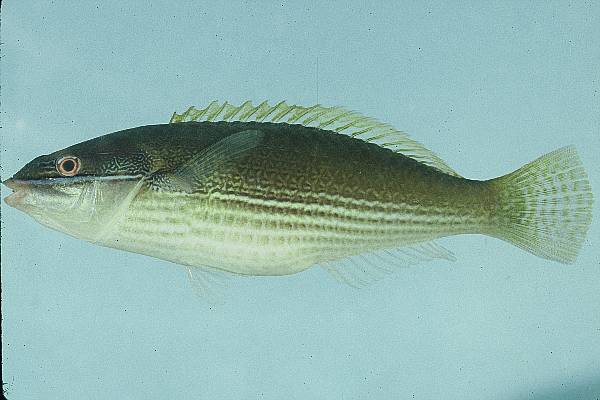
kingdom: Animalia
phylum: Chordata
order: Perciformes
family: Labridae
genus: Stethojulis
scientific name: Stethojulis strigiventer
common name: Three-ribbon wrasse
